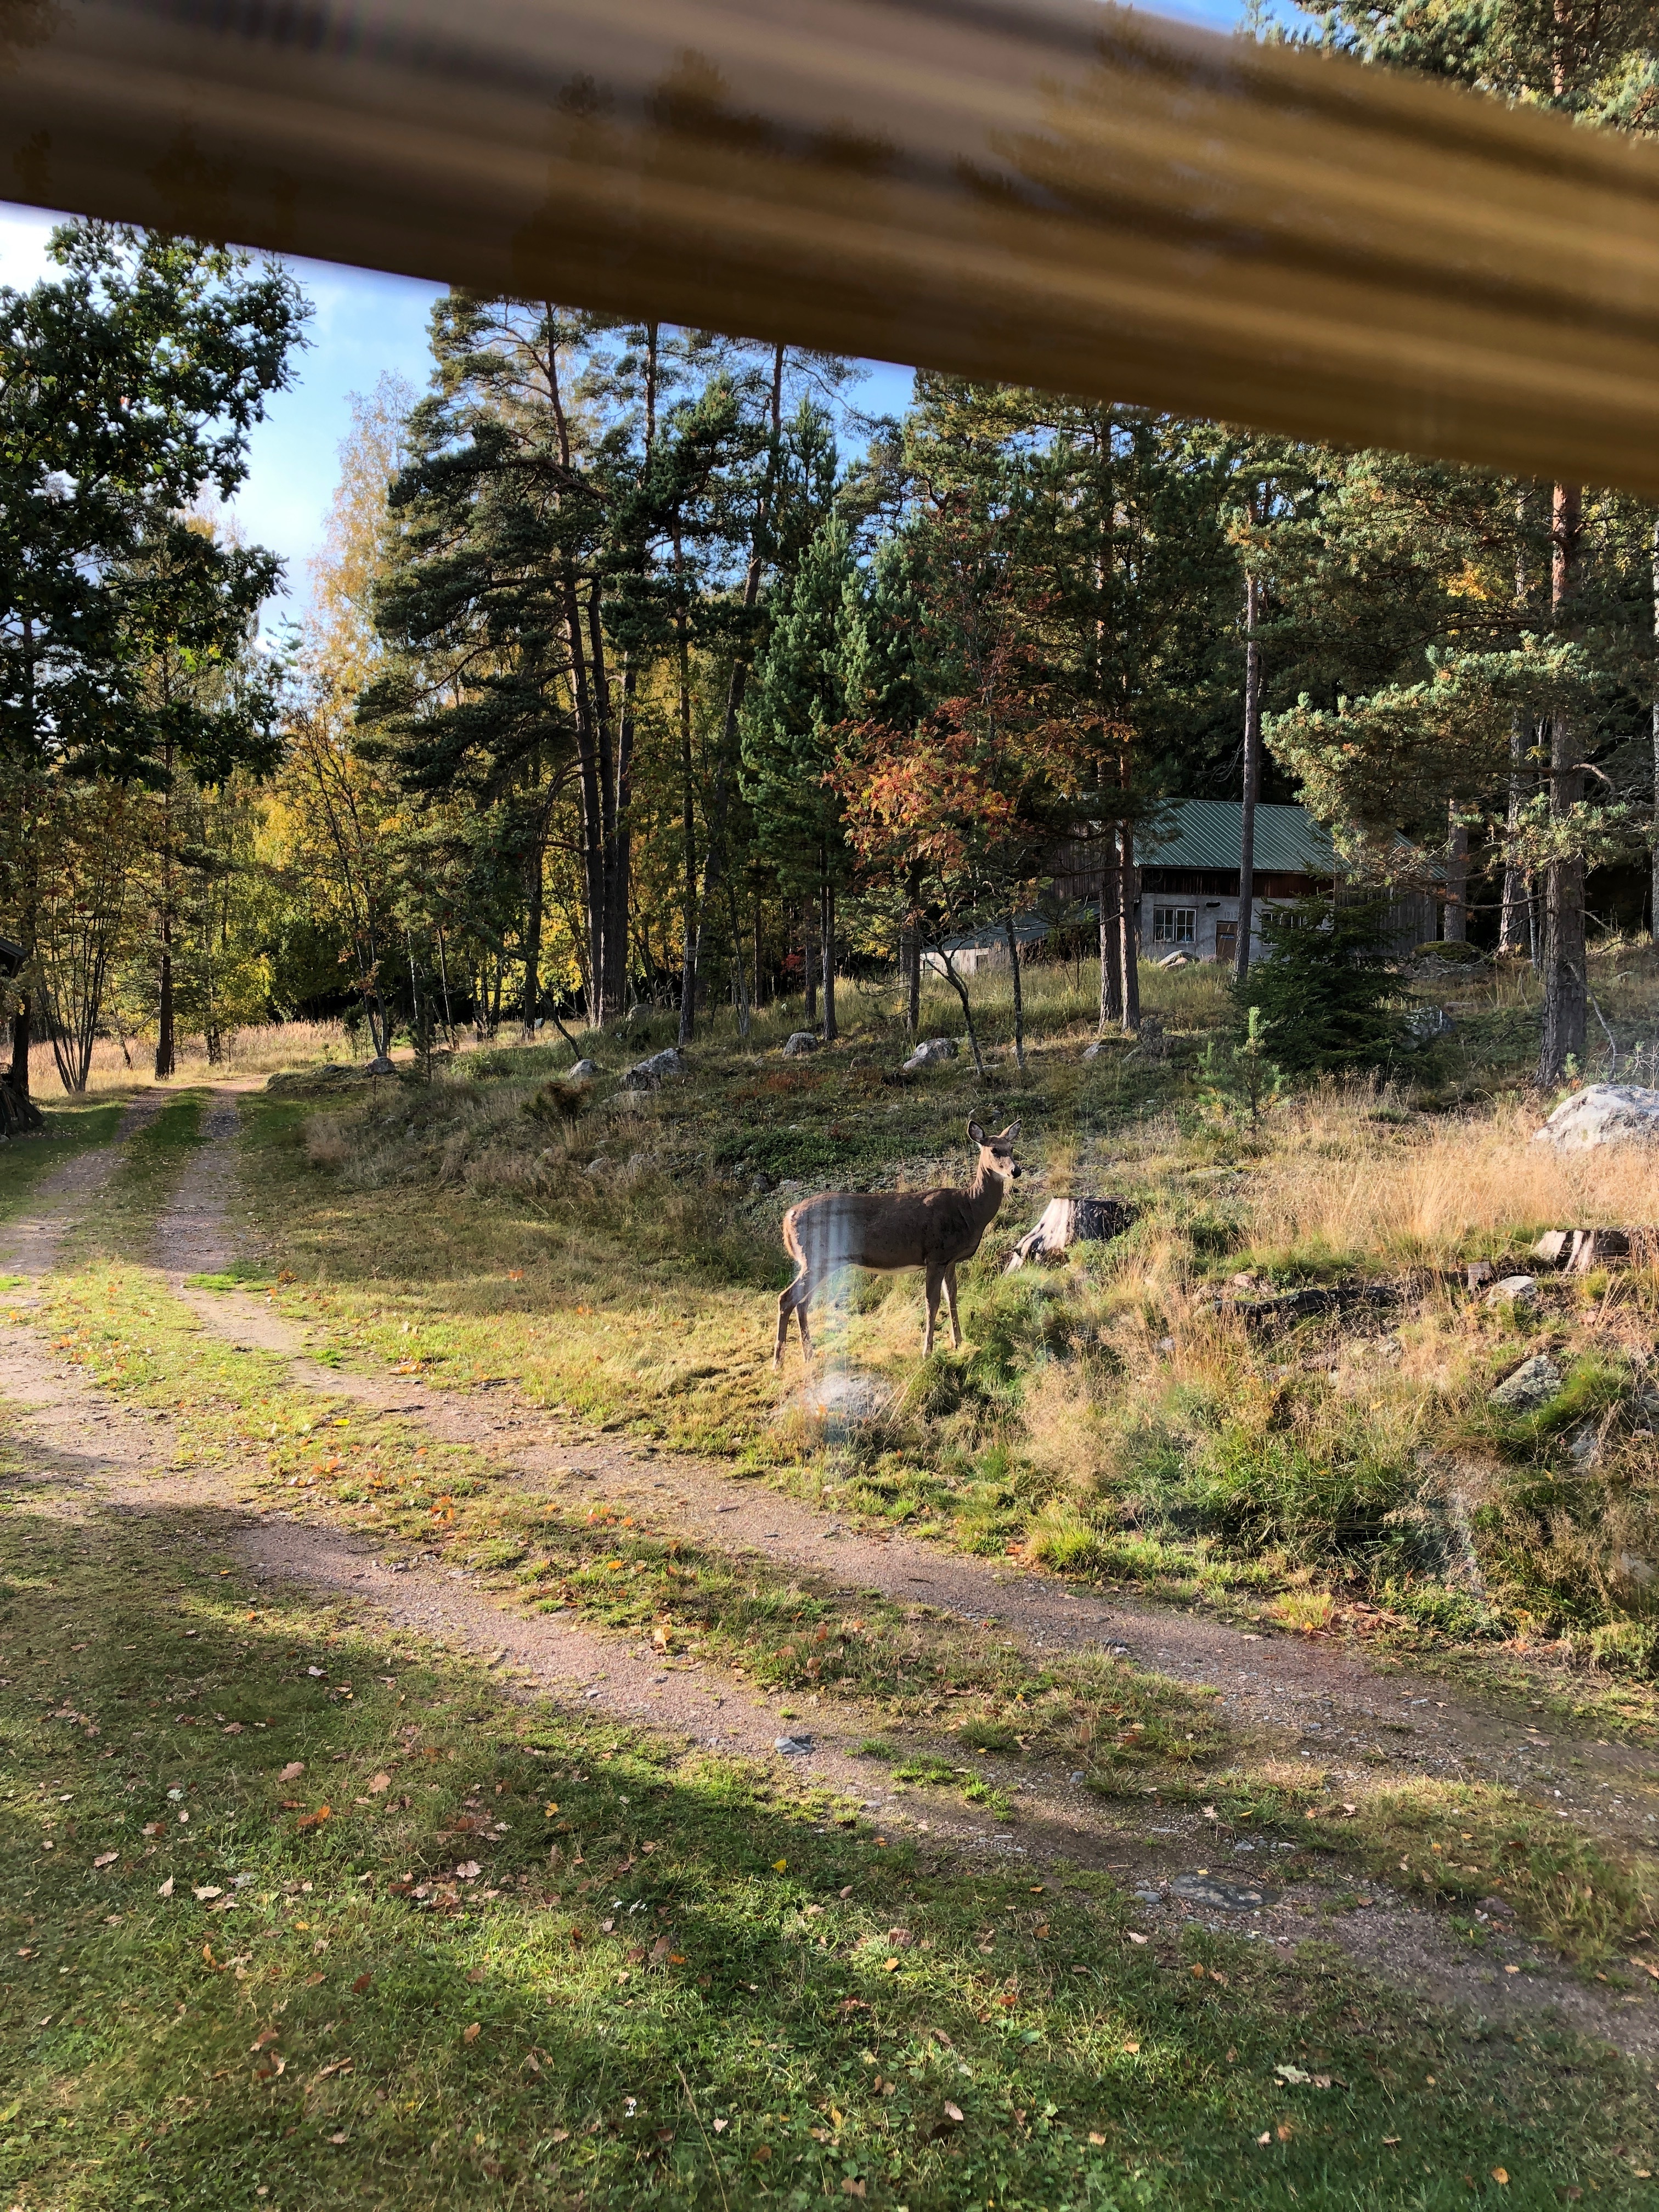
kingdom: Animalia
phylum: Chordata
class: Mammalia
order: Artiodactyla
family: Cervidae
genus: Odocoileus
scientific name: Odocoileus virginianus
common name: White-tailed deer
